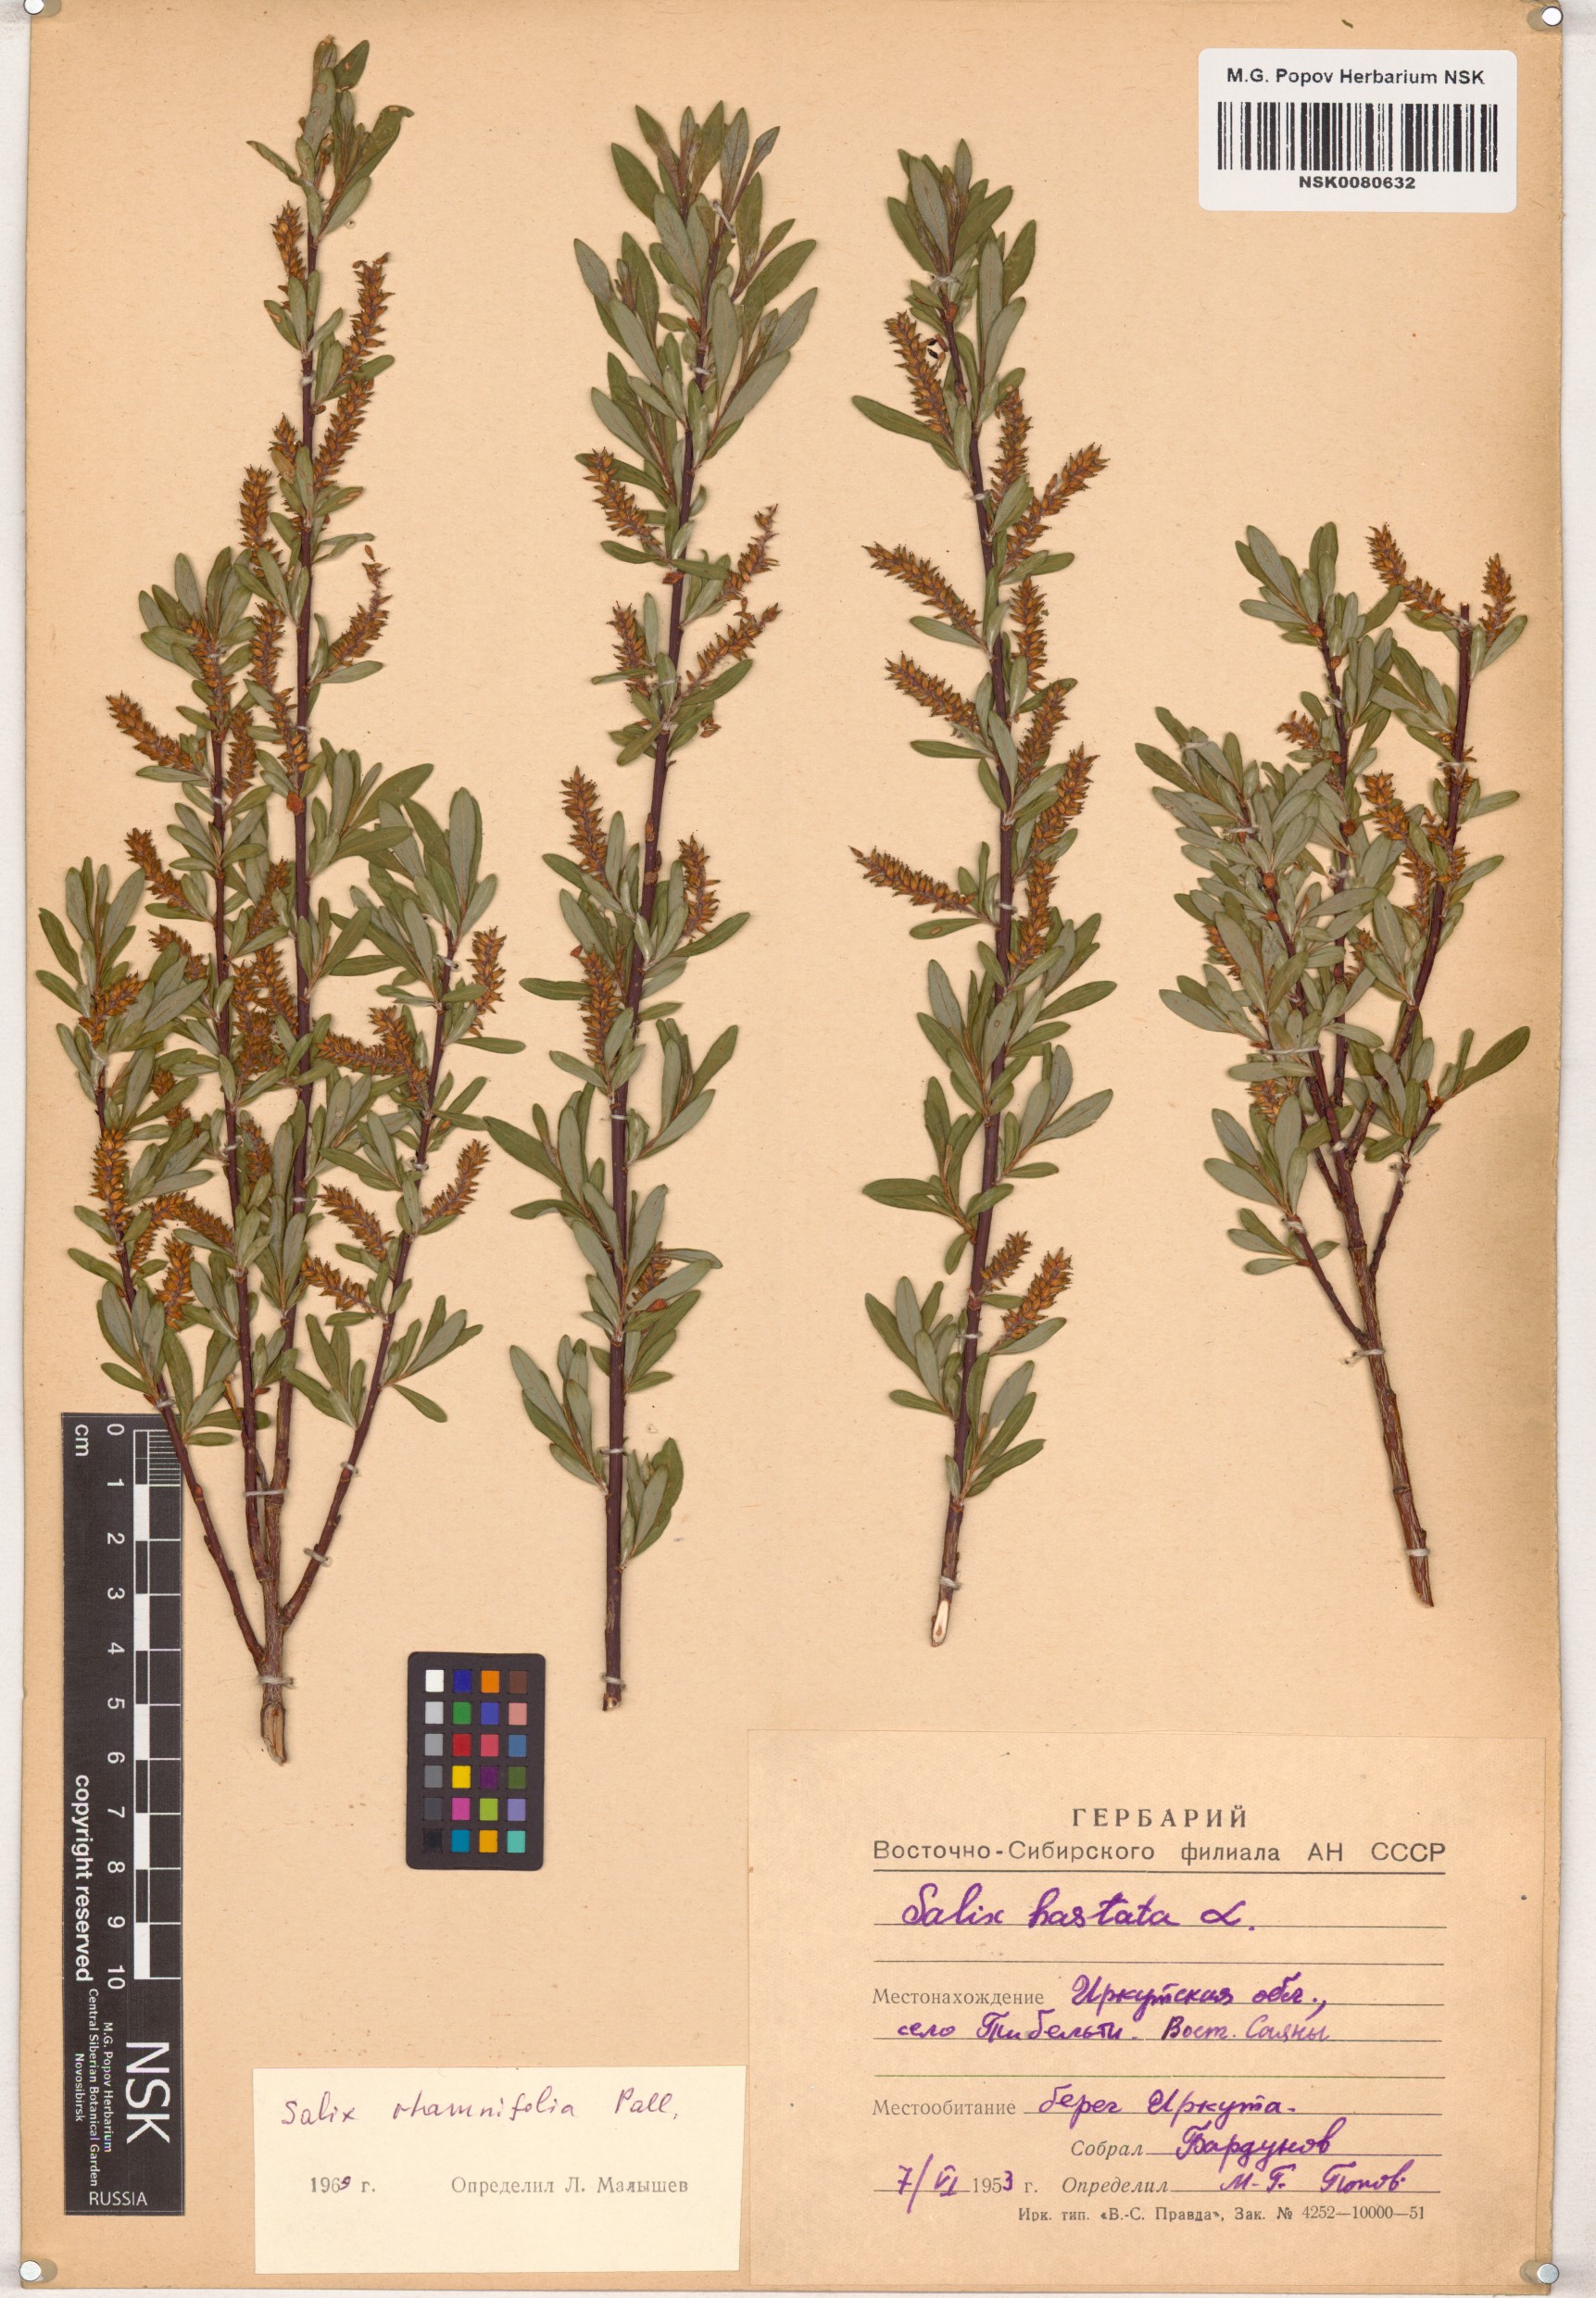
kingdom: Plantae
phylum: Tracheophyta
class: Magnoliopsida
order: Malpighiales
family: Salicaceae
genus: Salix
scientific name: Salix rhamnifolia
